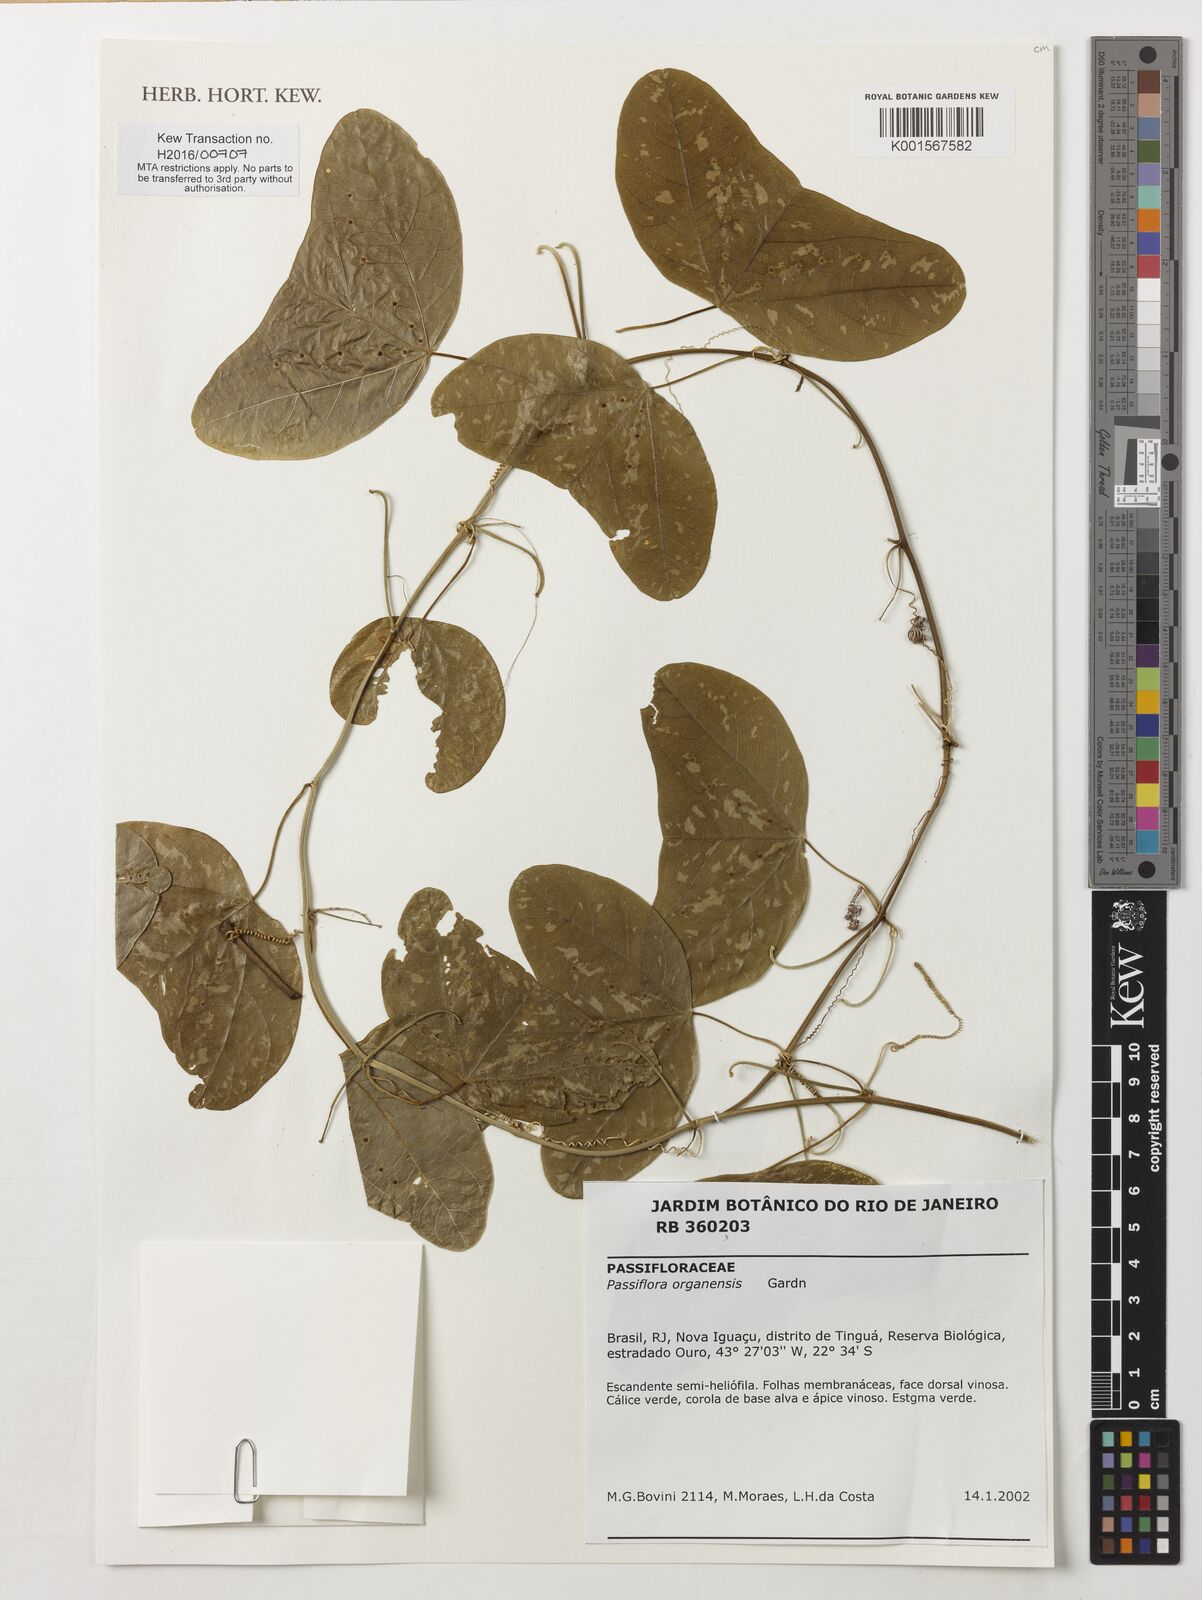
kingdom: Plantae
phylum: Tracheophyta
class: Magnoliopsida
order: Malpighiales
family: Passifloraceae
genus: Passiflora
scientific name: Passiflora porophylla
